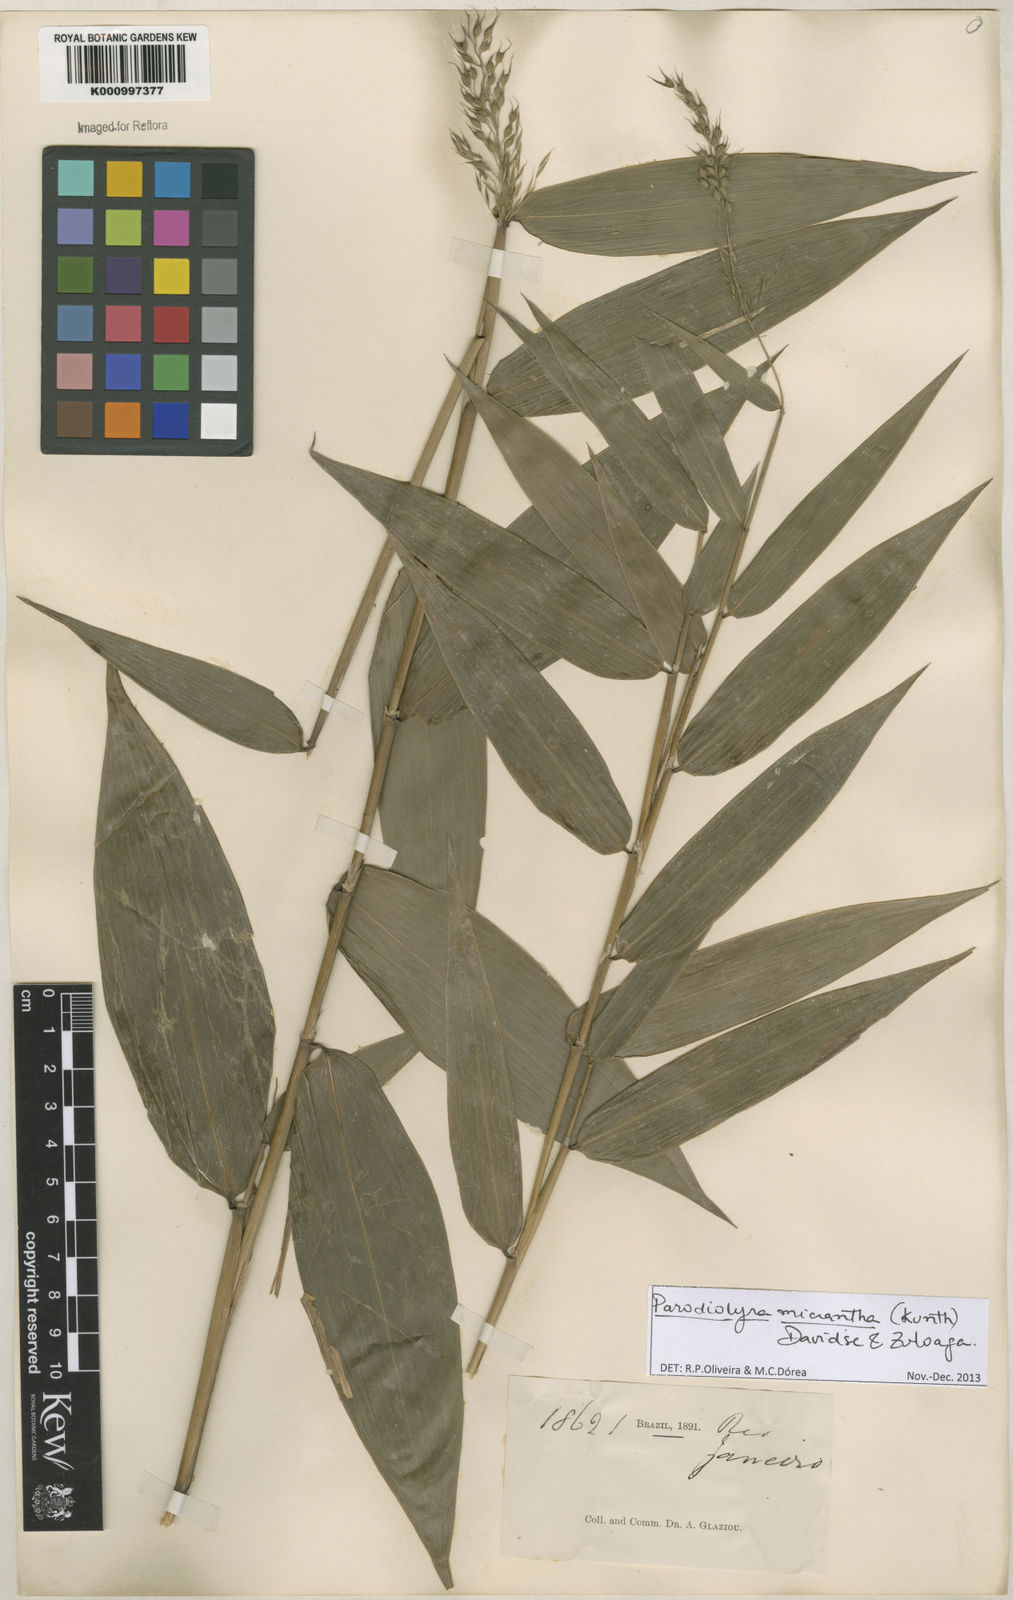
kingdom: Plantae
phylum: Tracheophyta
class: Liliopsida
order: Poales
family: Poaceae
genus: Taquara
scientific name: Taquara micrantha
